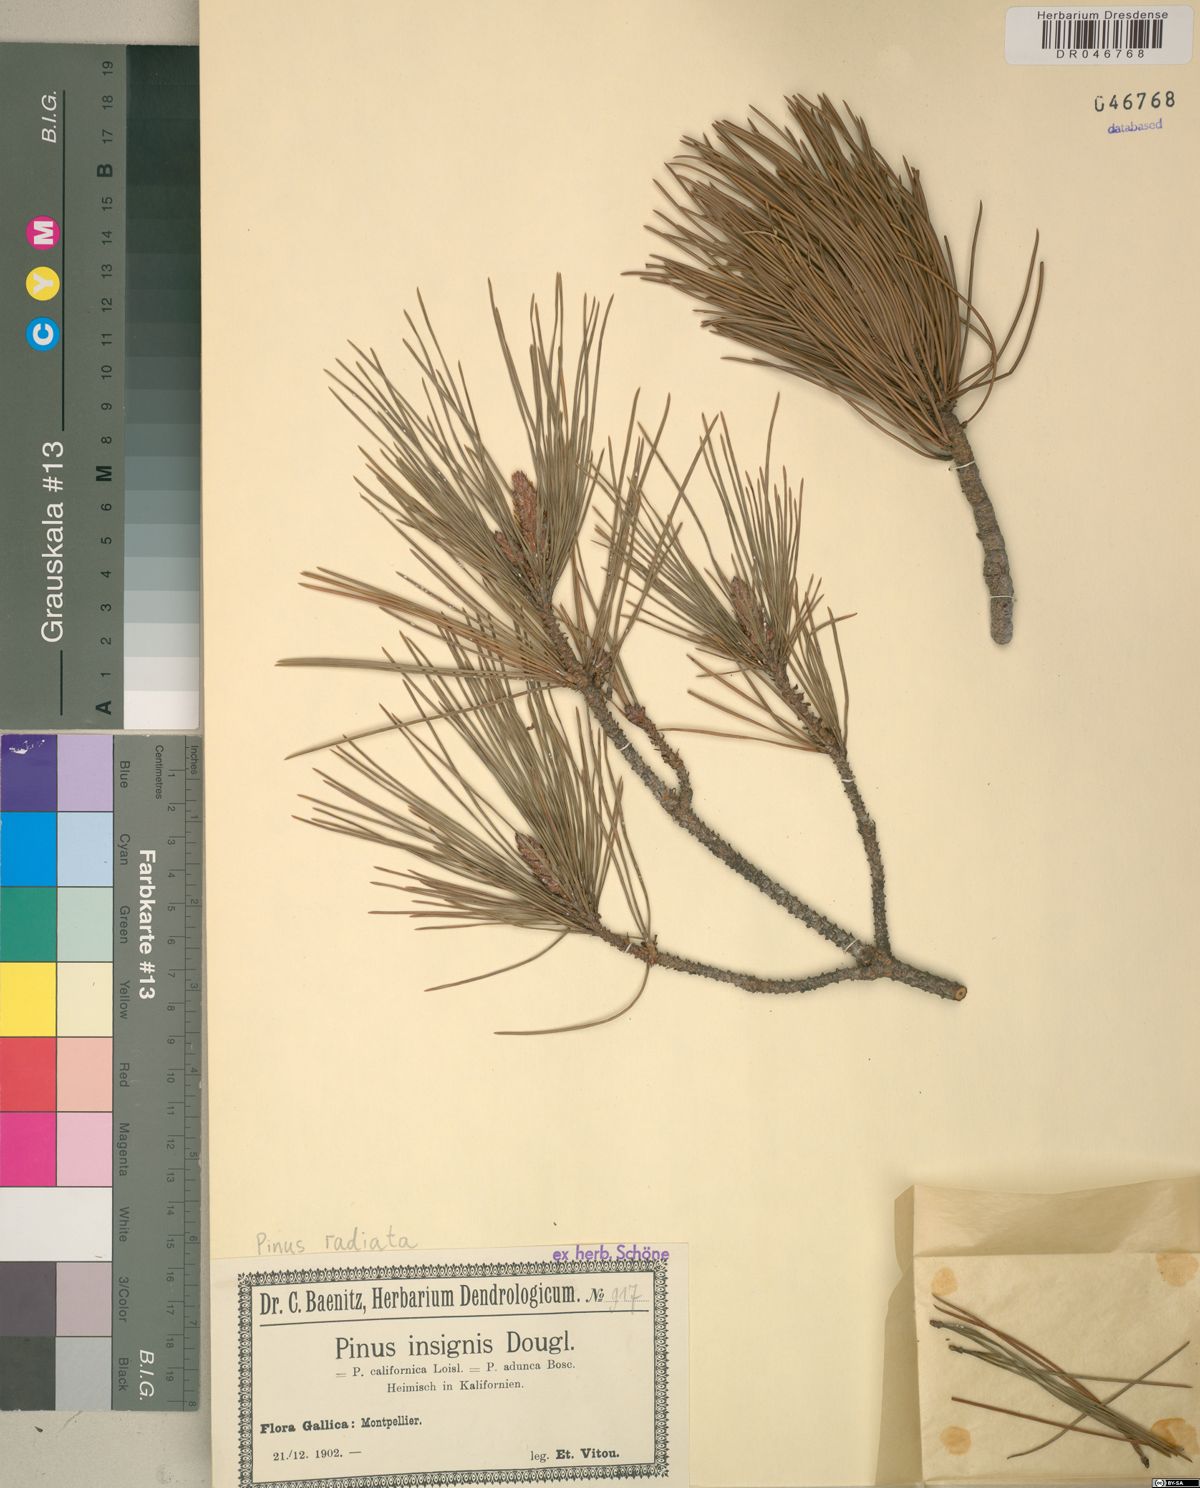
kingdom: Plantae
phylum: Tracheophyta
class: Pinopsida
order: Pinales
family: Pinaceae
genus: Pinus
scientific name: Pinus radiata
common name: Monterey pine
